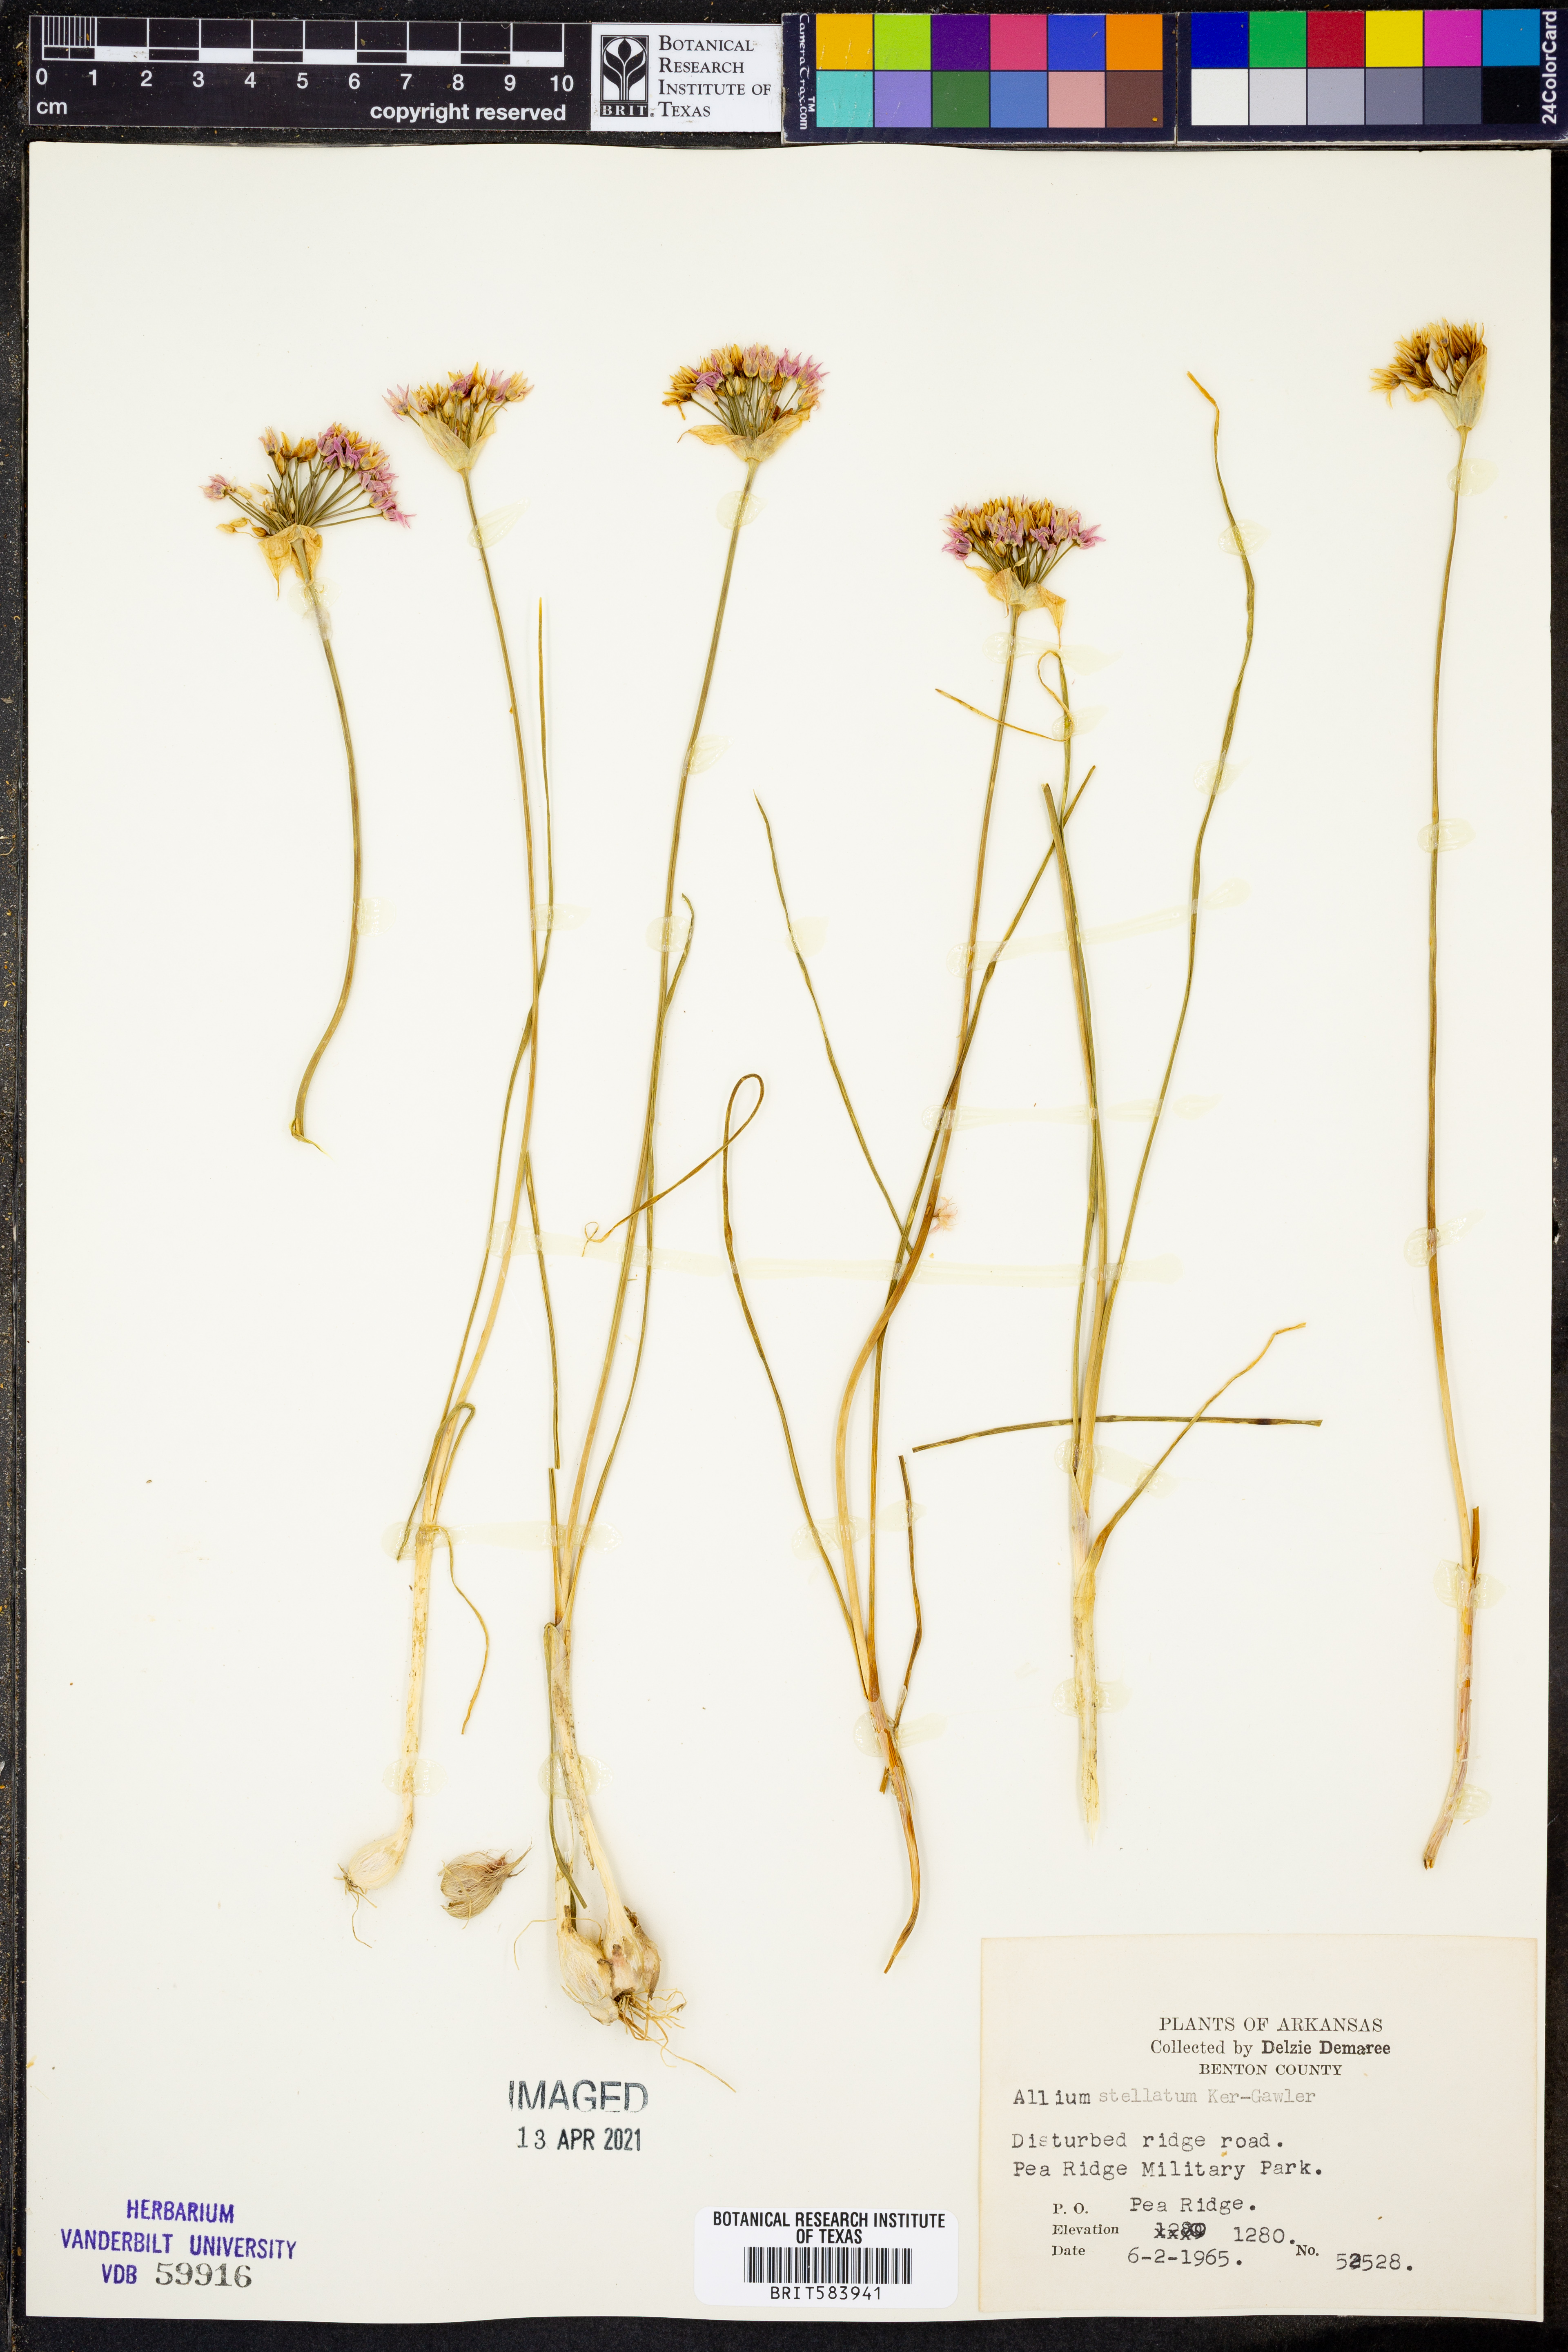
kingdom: Plantae
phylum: Tracheophyta
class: Liliopsida
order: Asparagales
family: Amaryllidaceae
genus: Allium
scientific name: Allium stellatum
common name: Autumn onion
